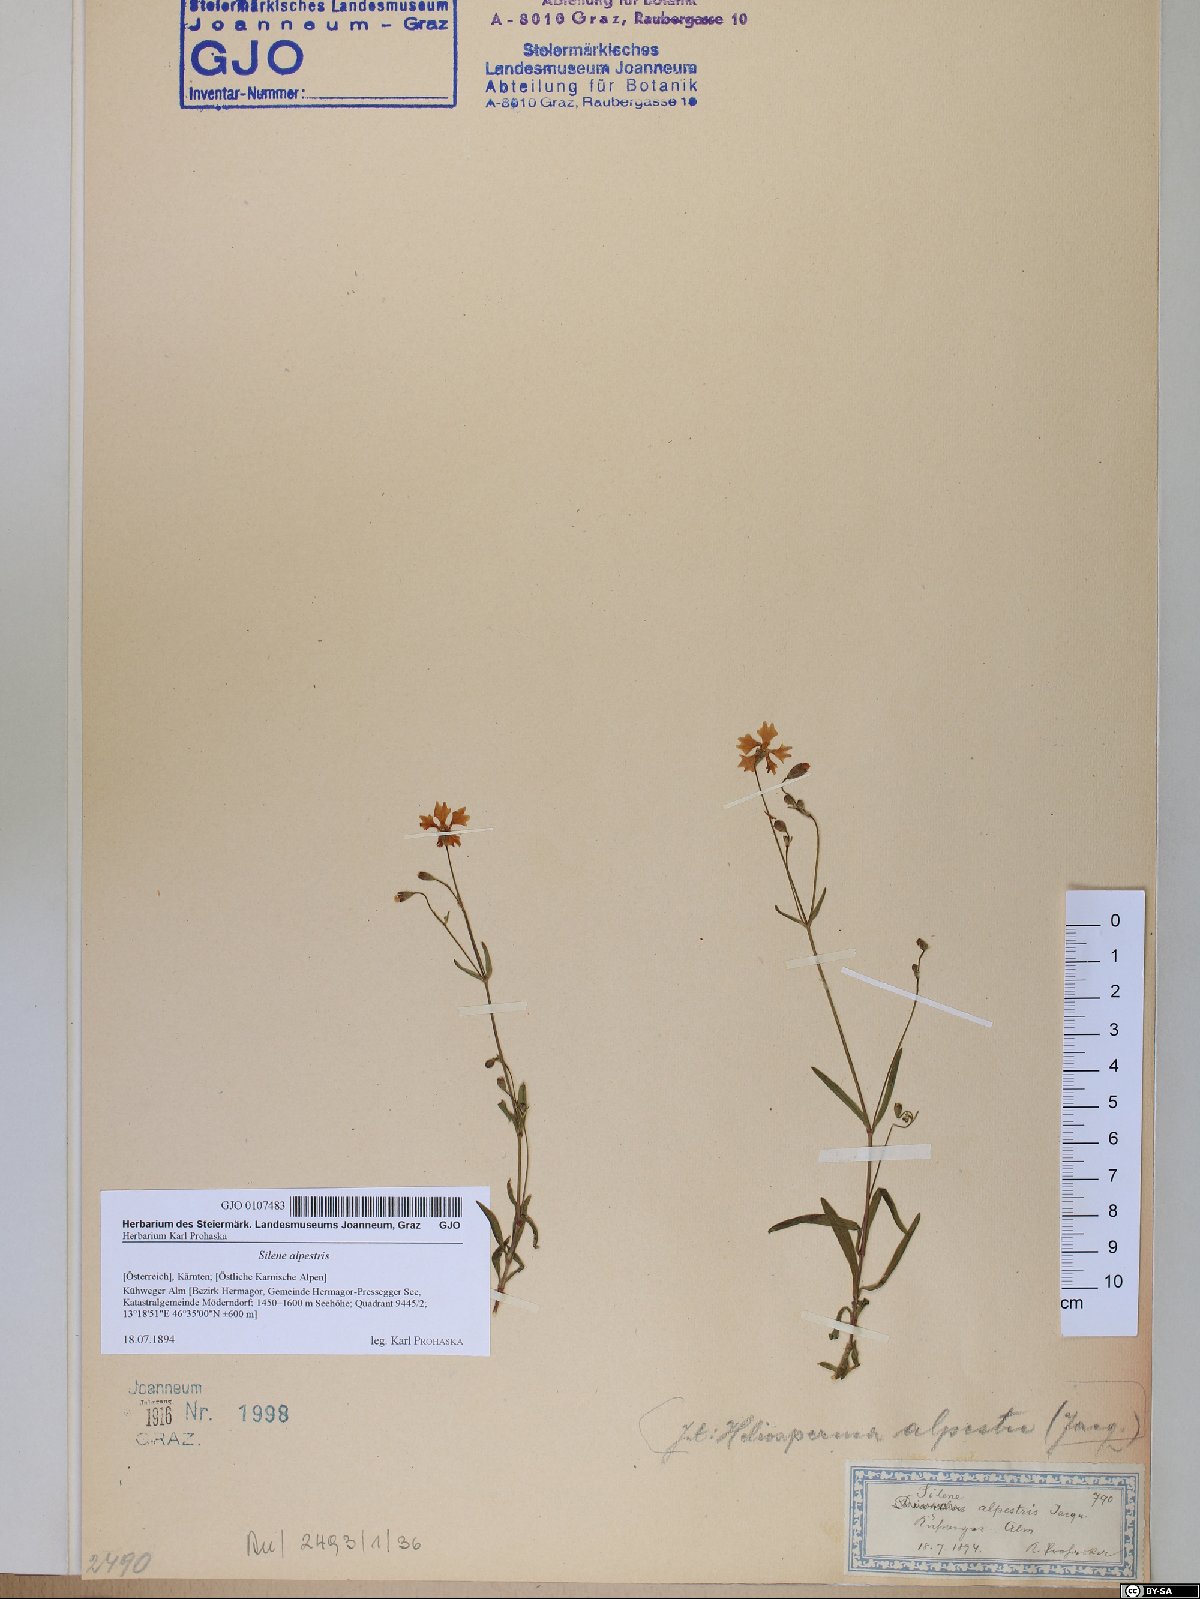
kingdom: Plantae
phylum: Tracheophyta
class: Magnoliopsida
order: Caryophyllales
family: Caryophyllaceae
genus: Heliosperma
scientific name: Heliosperma alpestre
